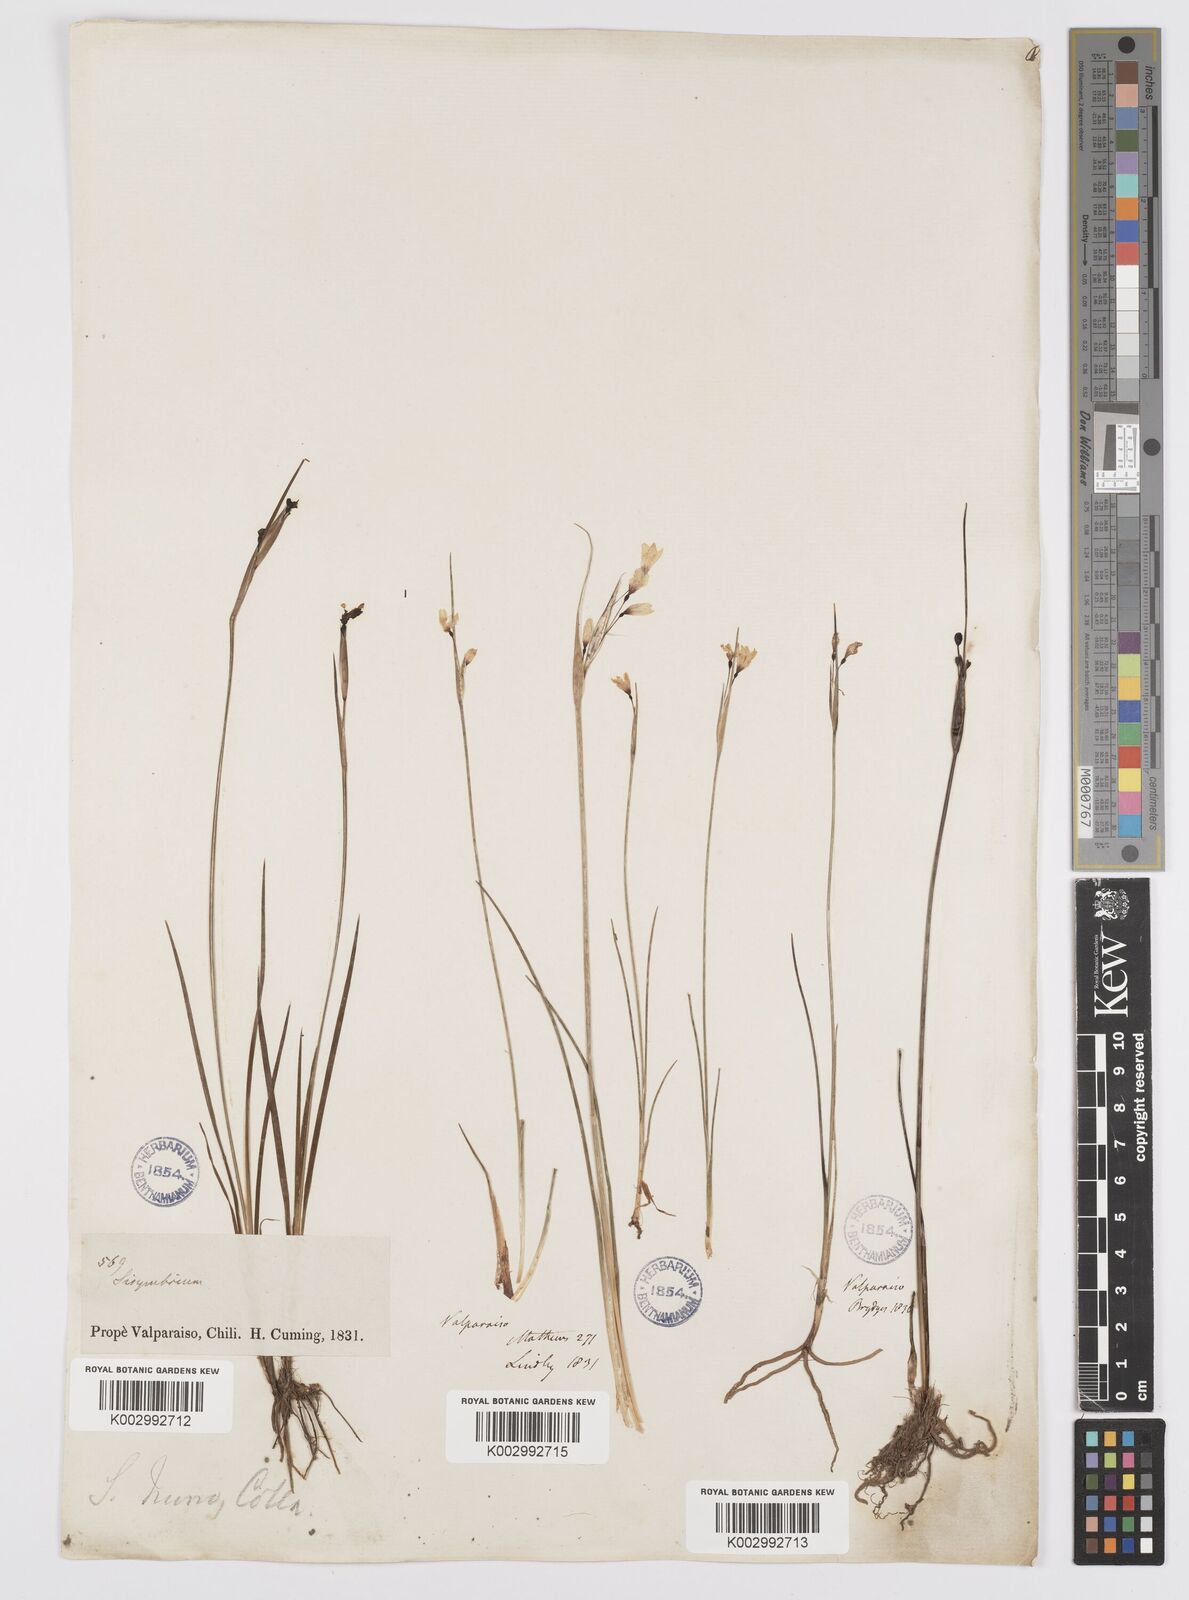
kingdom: Plantae
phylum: Tracheophyta
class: Liliopsida
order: Asparagales
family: Iridaceae
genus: Olsynium
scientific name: Olsynium scirpoideum
